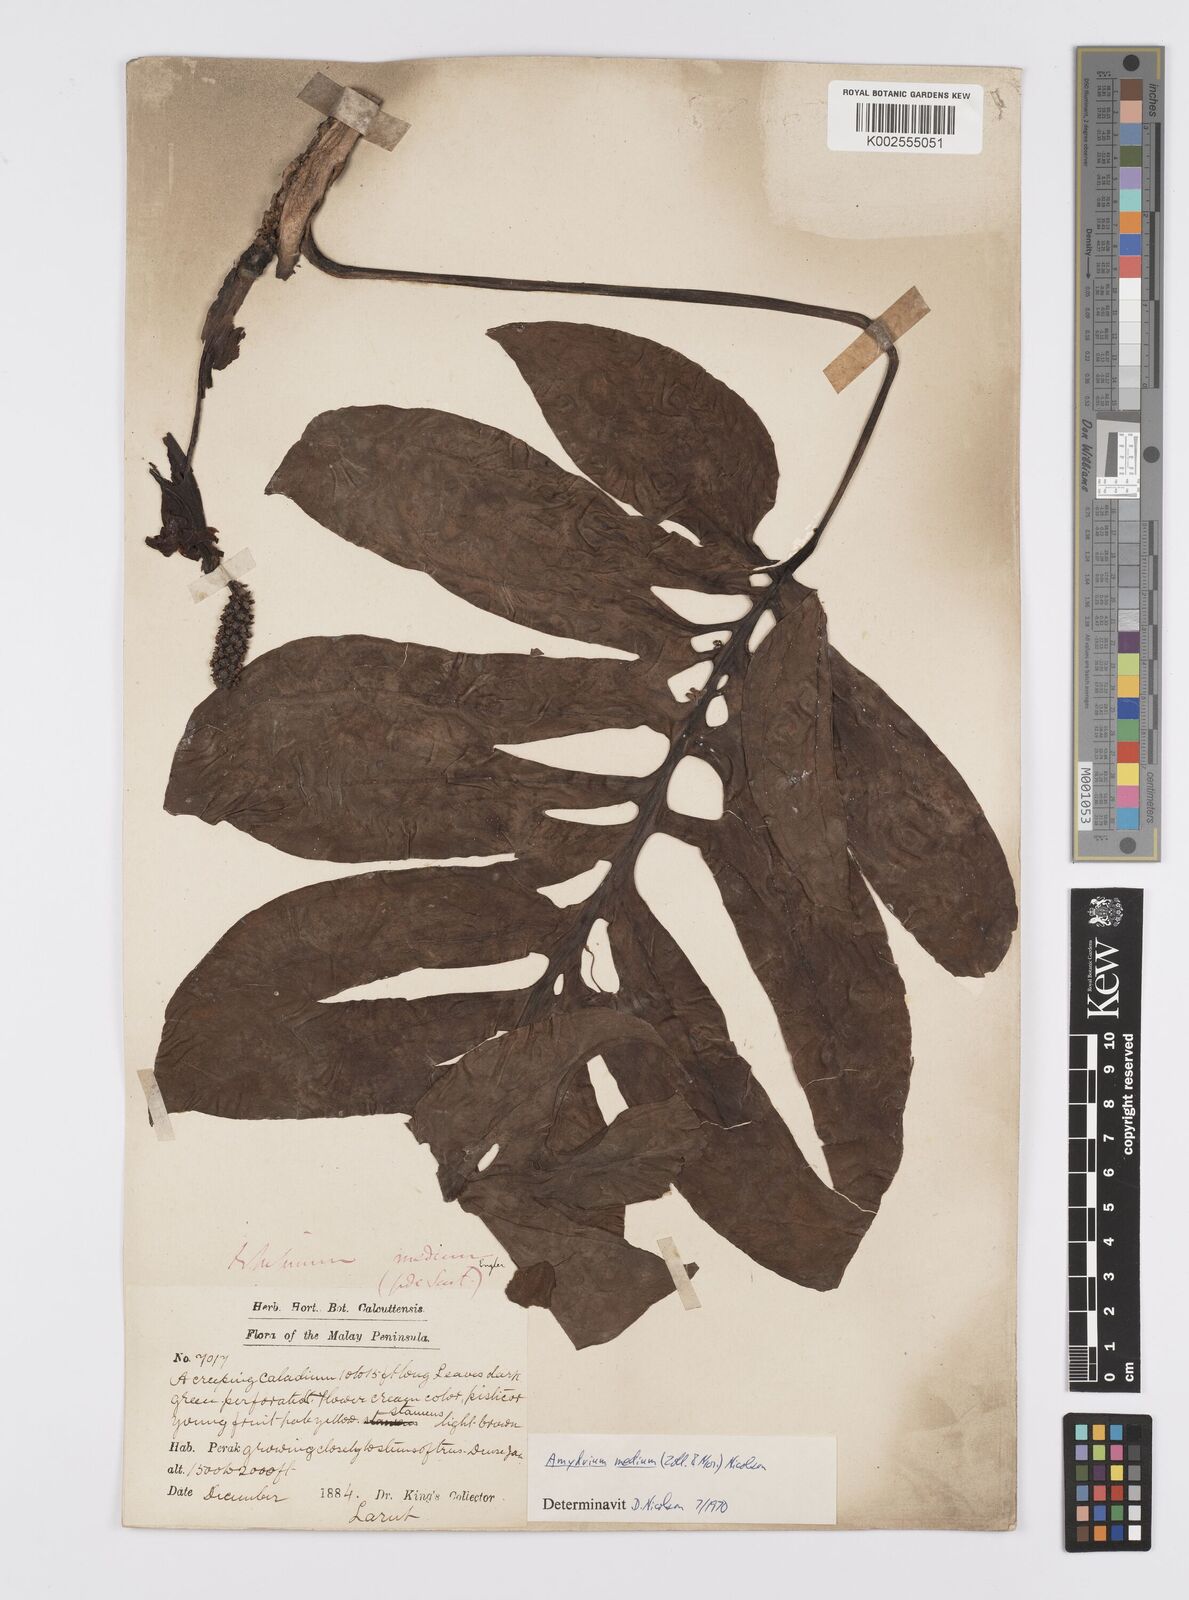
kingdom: Plantae
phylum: Tracheophyta
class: Liliopsida
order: Alismatales
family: Araceae
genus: Amydrium
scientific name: Amydrium medium
